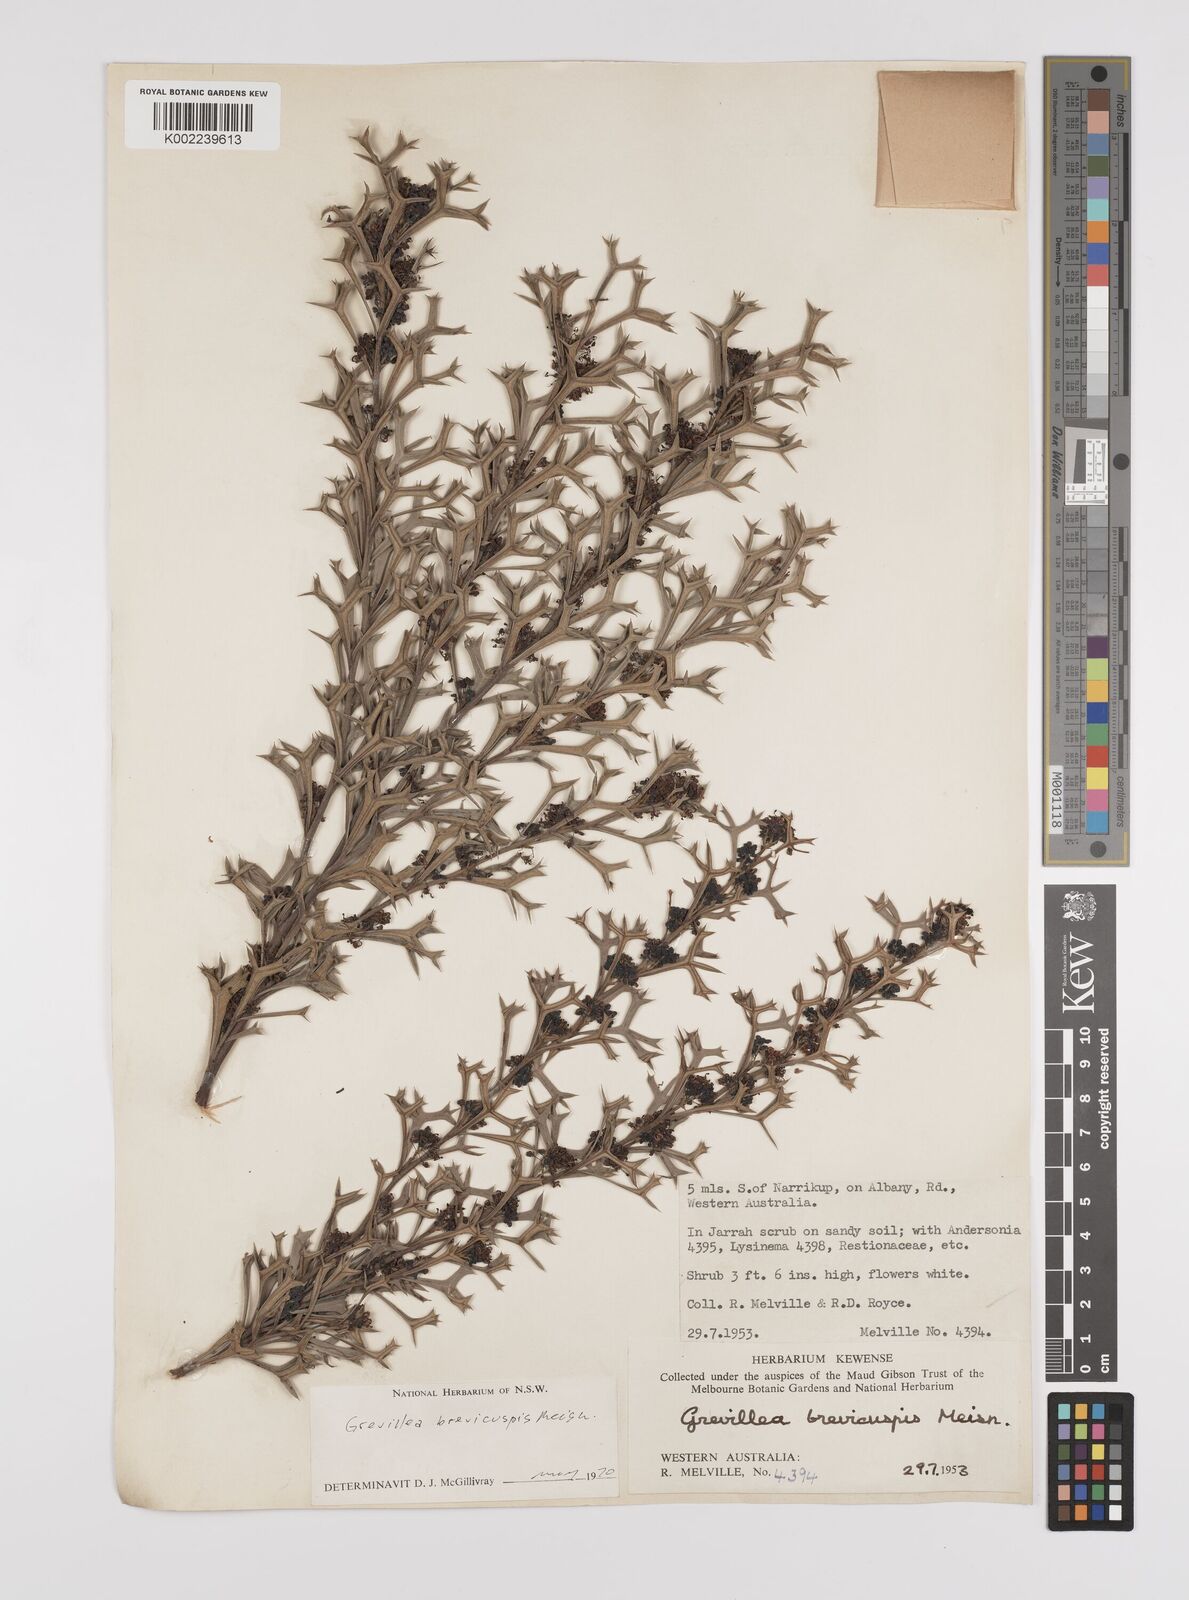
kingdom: Plantae
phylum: Tracheophyta
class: Magnoliopsida
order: Proteales
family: Proteaceae
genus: Grevillea
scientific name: Grevillea trifida
